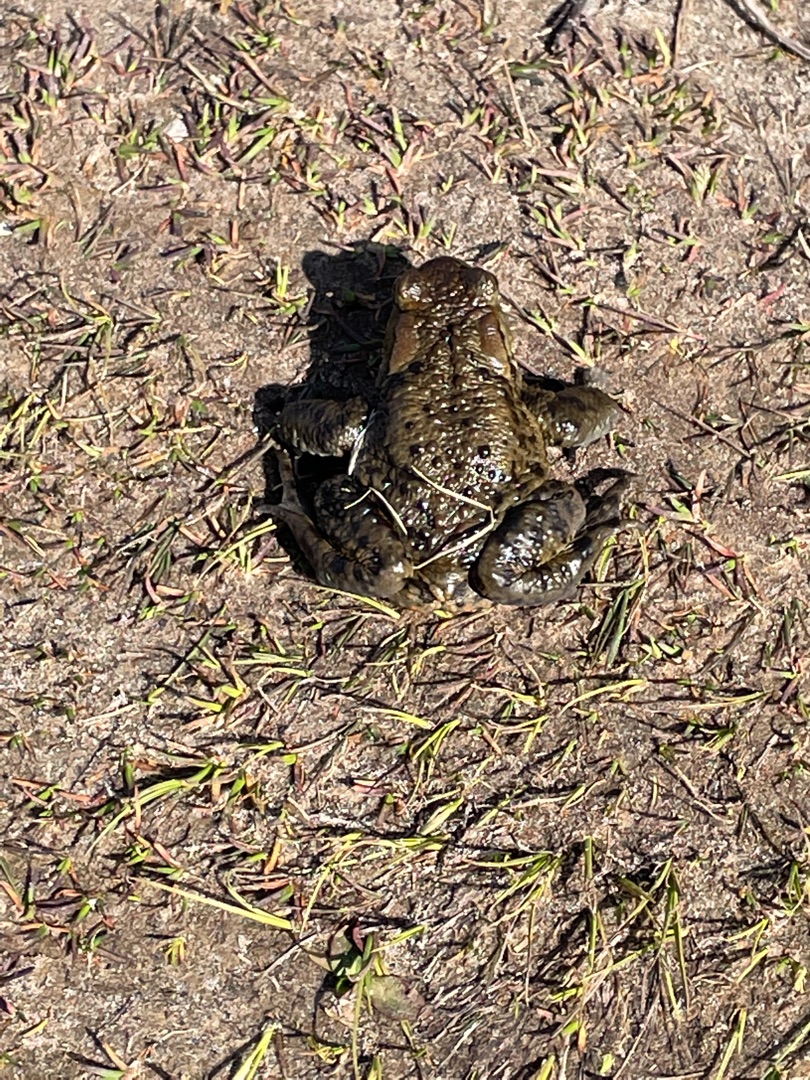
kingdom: Animalia
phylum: Chordata
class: Amphibia
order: Anura
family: Bufonidae
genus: Bufo
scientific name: Bufo bufo
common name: Skrubtudse
